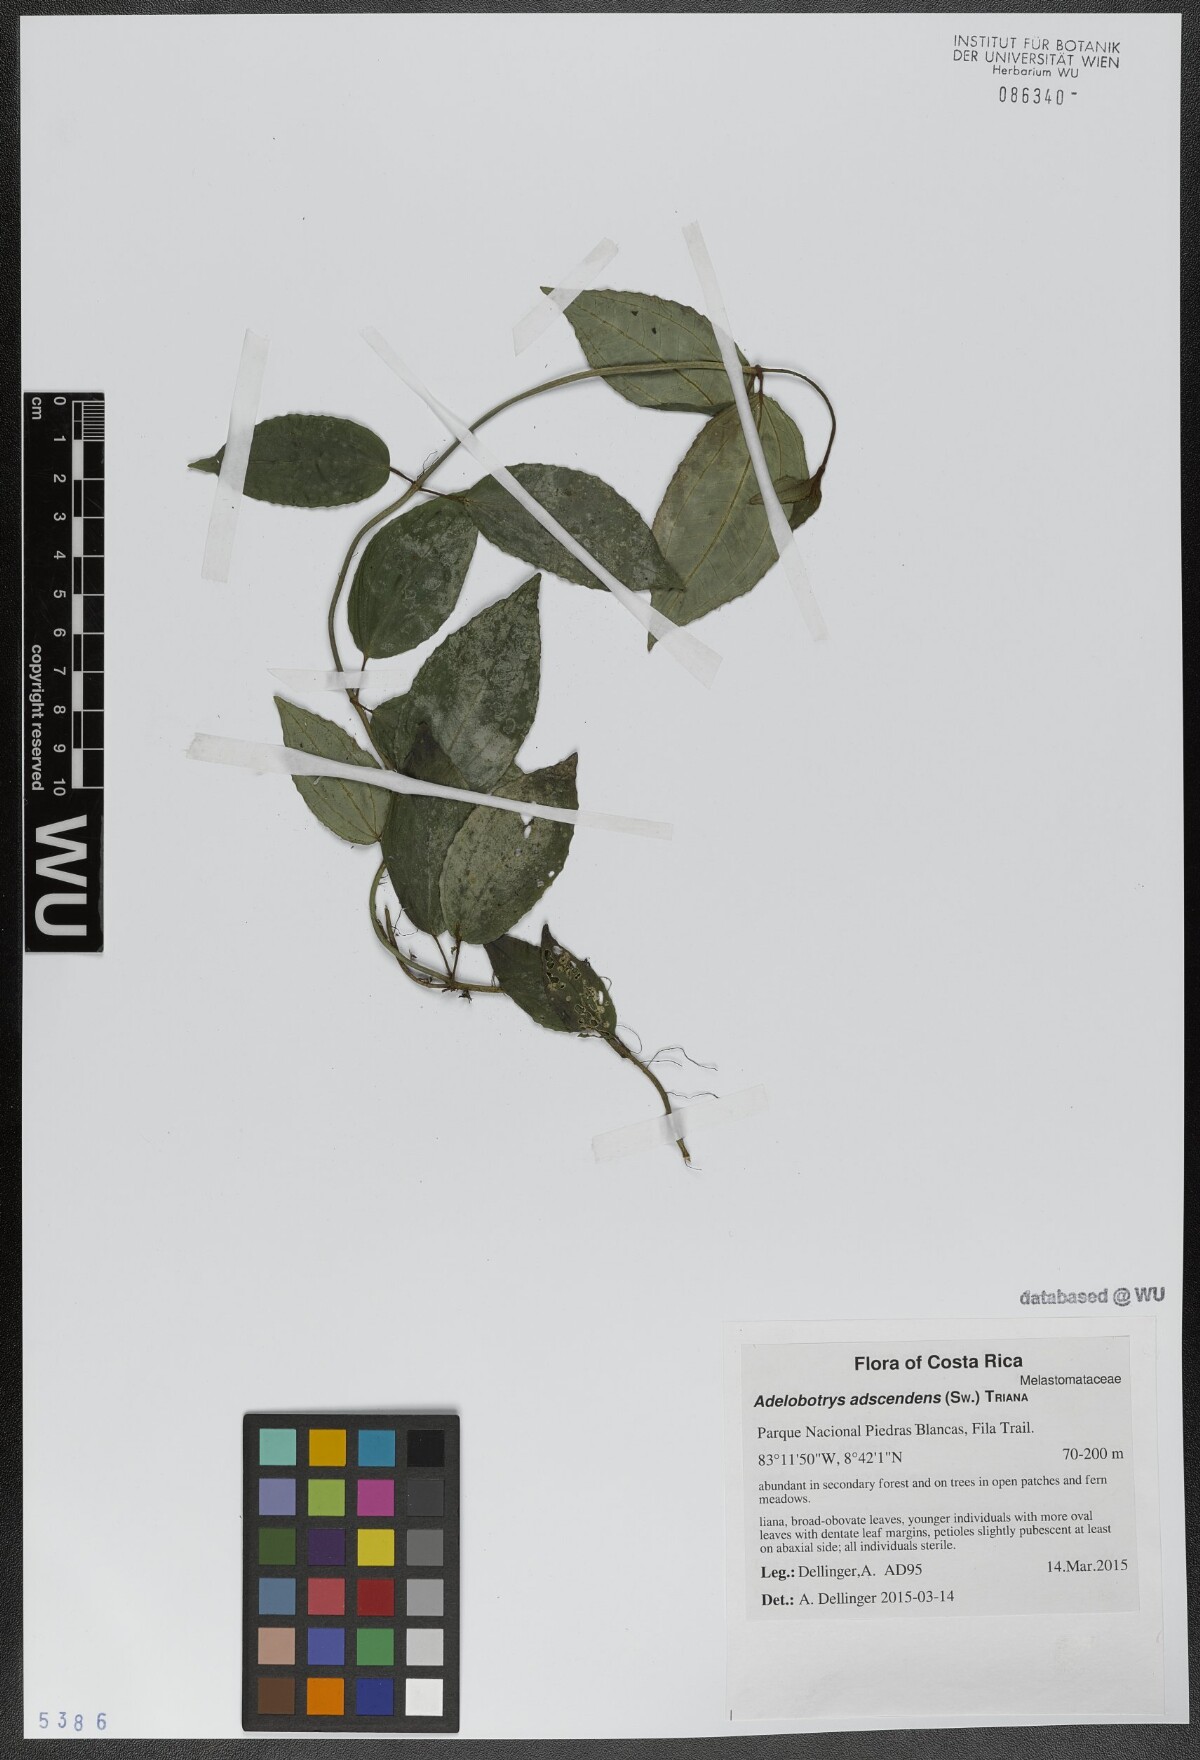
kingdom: Plantae
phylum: Tracheophyta
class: Magnoliopsida
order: Myrtales
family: Melastomataceae
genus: Adelobotrys
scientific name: Adelobotrys adscendens
